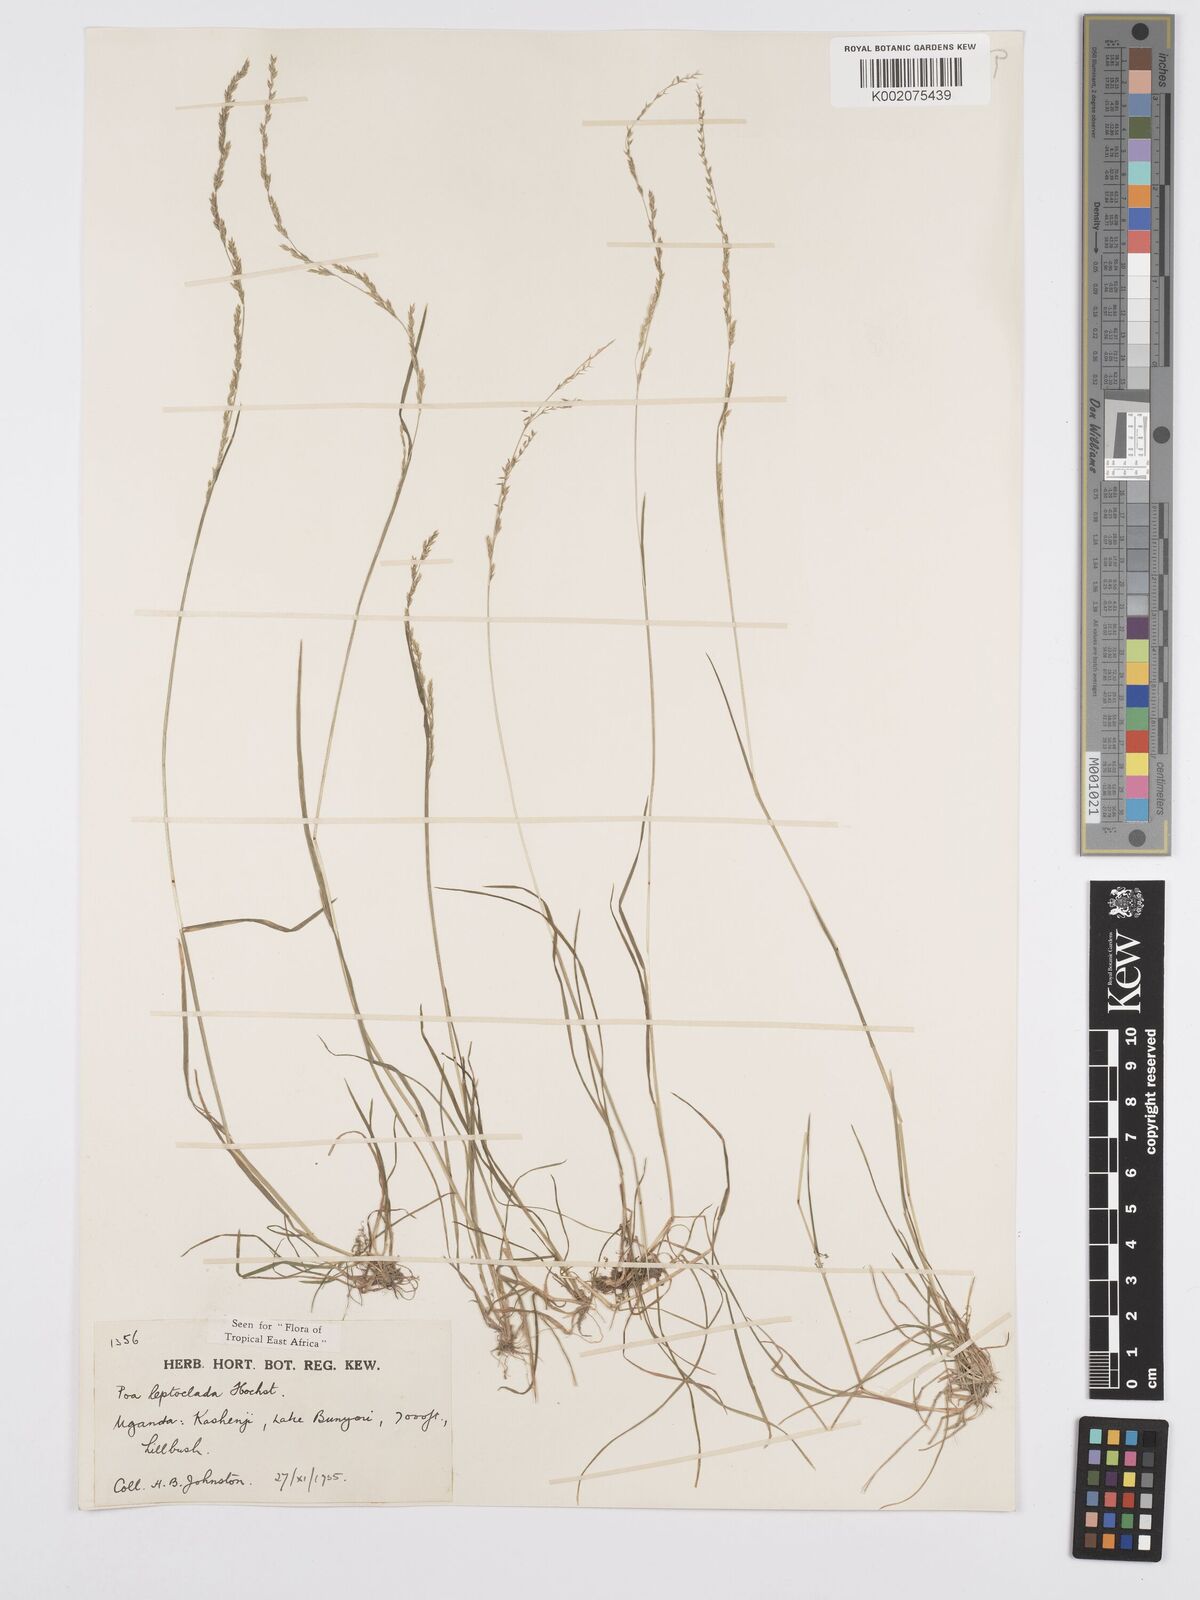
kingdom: Plantae
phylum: Tracheophyta
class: Liliopsida
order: Poales
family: Poaceae
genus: Poa
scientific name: Poa
